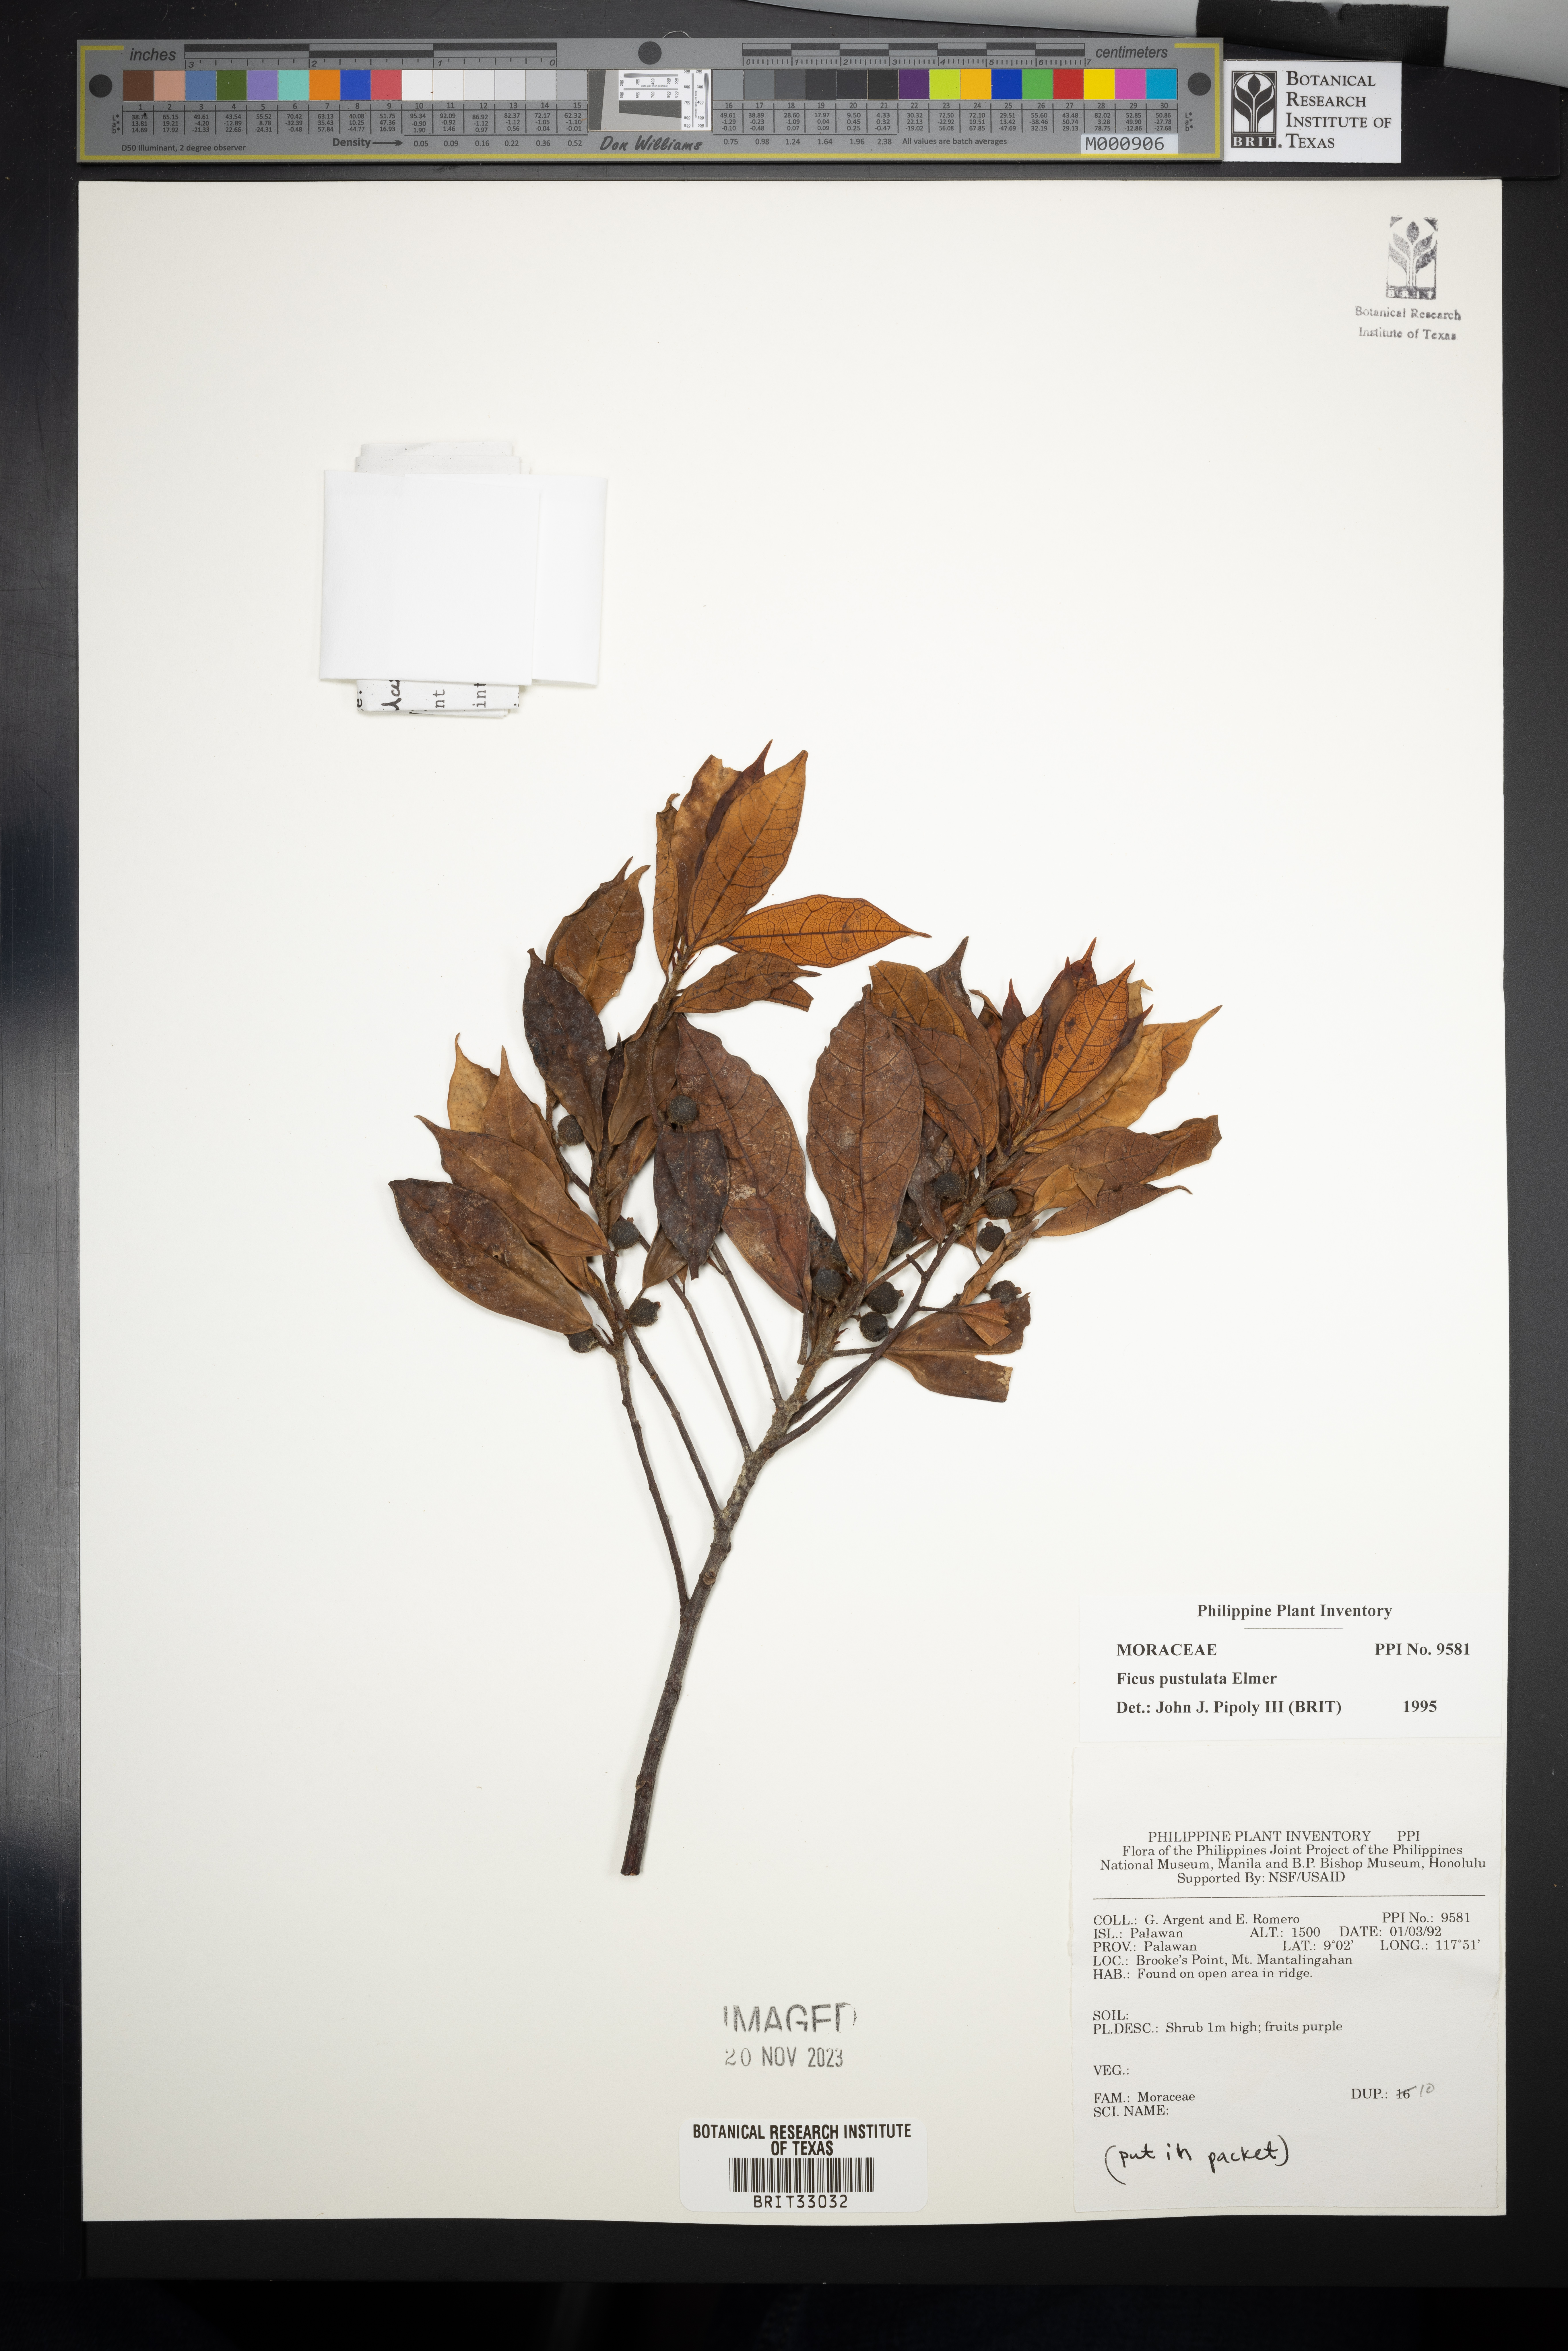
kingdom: Plantae
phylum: Tracheophyta
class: Magnoliopsida
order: Rosales
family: Moraceae
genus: Ficus
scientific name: Ficus pustulata
